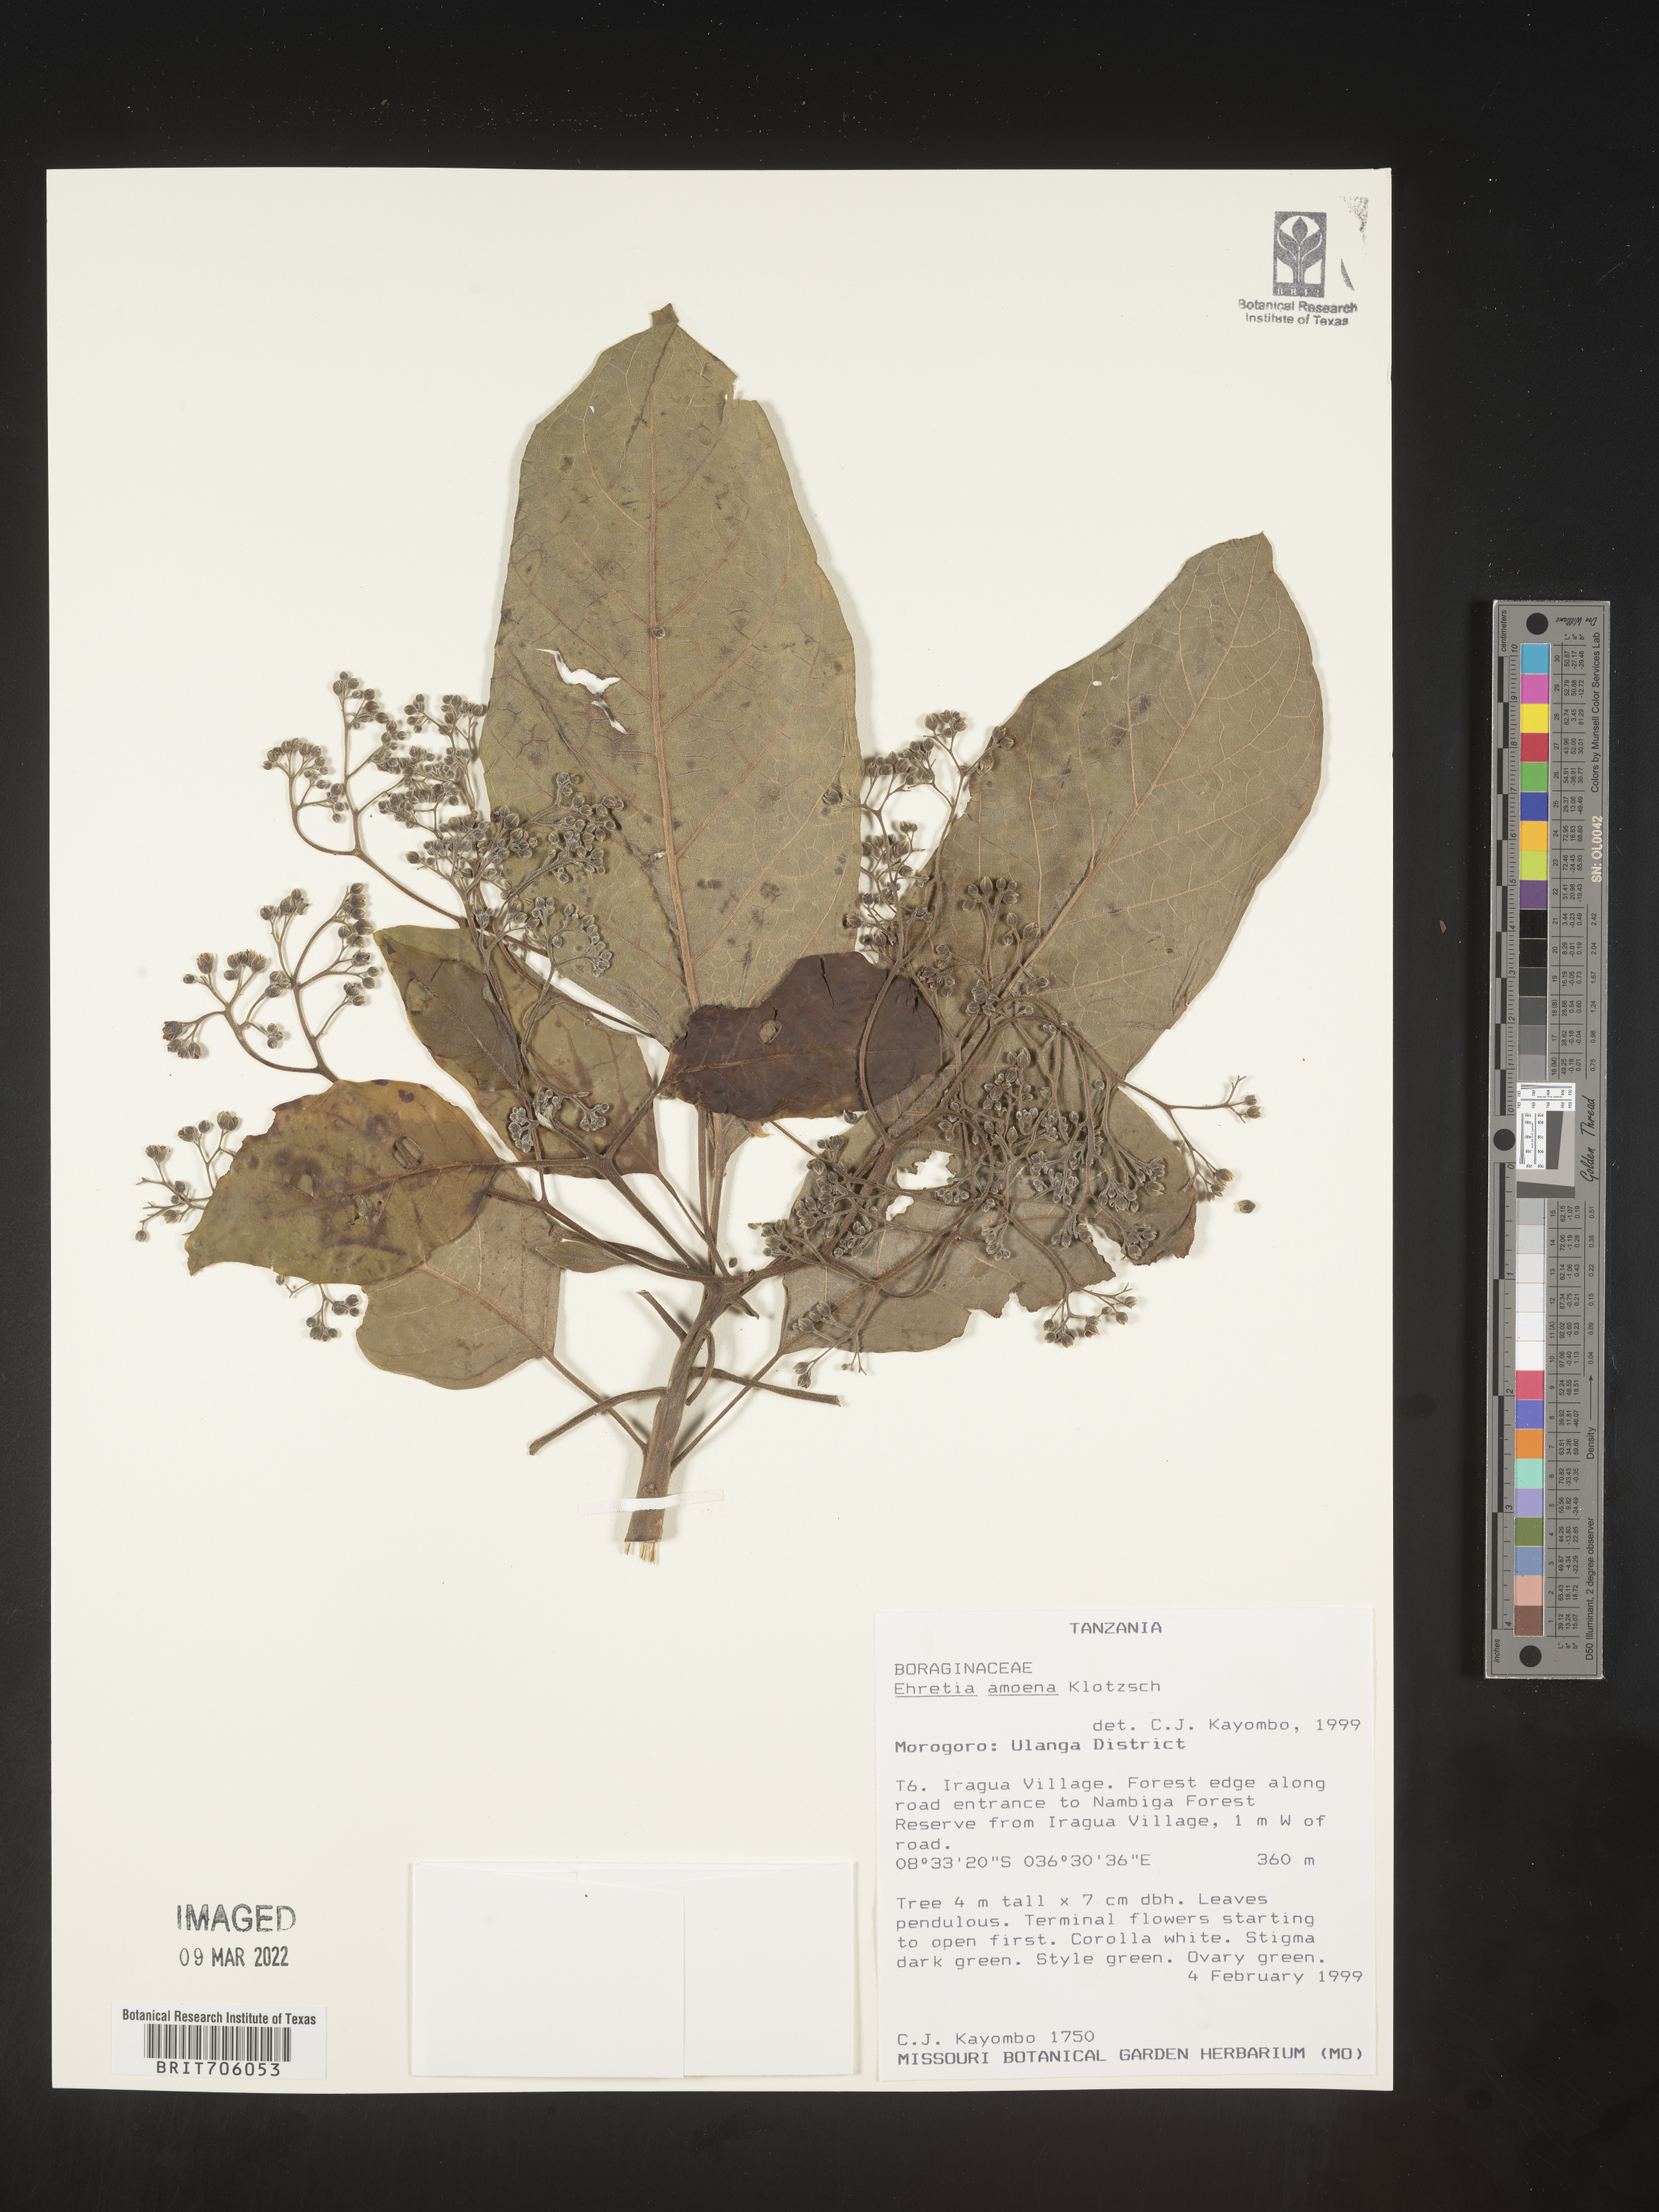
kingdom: Plantae
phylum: Tracheophyta
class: Magnoliopsida
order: Boraginales
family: Ehretiaceae
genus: Ehretia
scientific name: Ehretia
